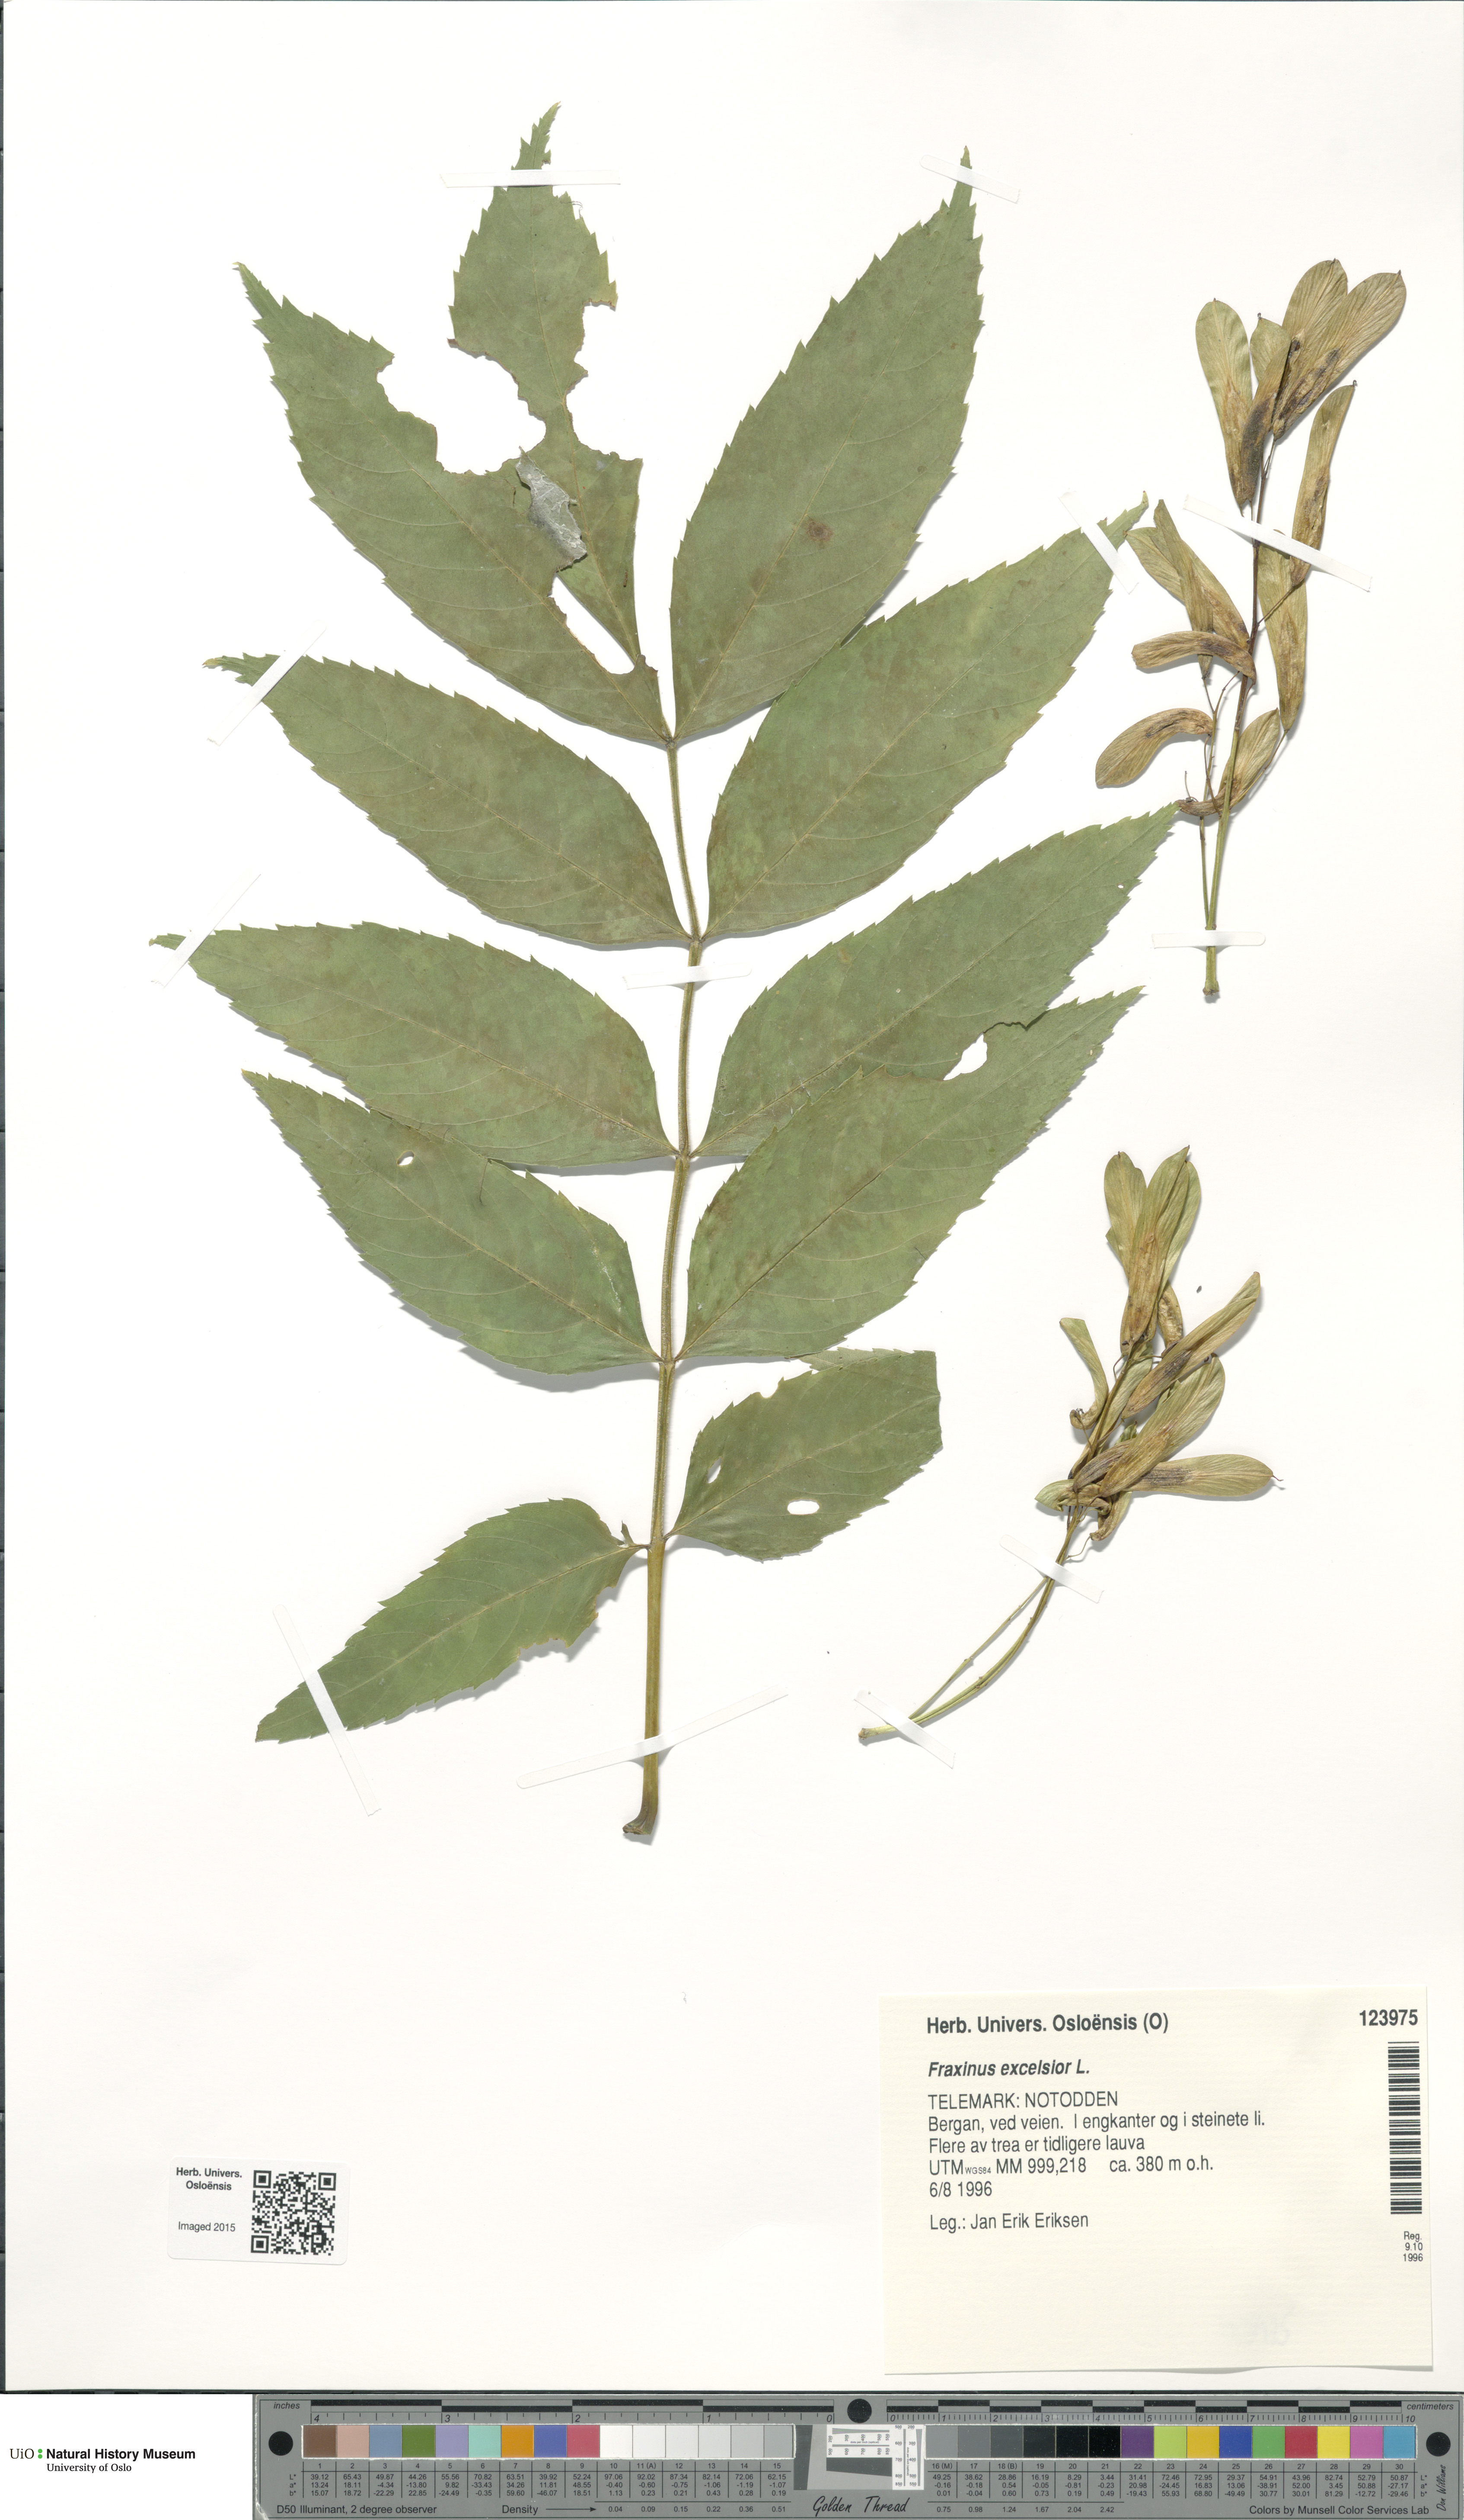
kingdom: Plantae
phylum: Tracheophyta
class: Magnoliopsida
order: Lamiales
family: Oleaceae
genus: Fraxinus
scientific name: Fraxinus excelsior
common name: European ash
